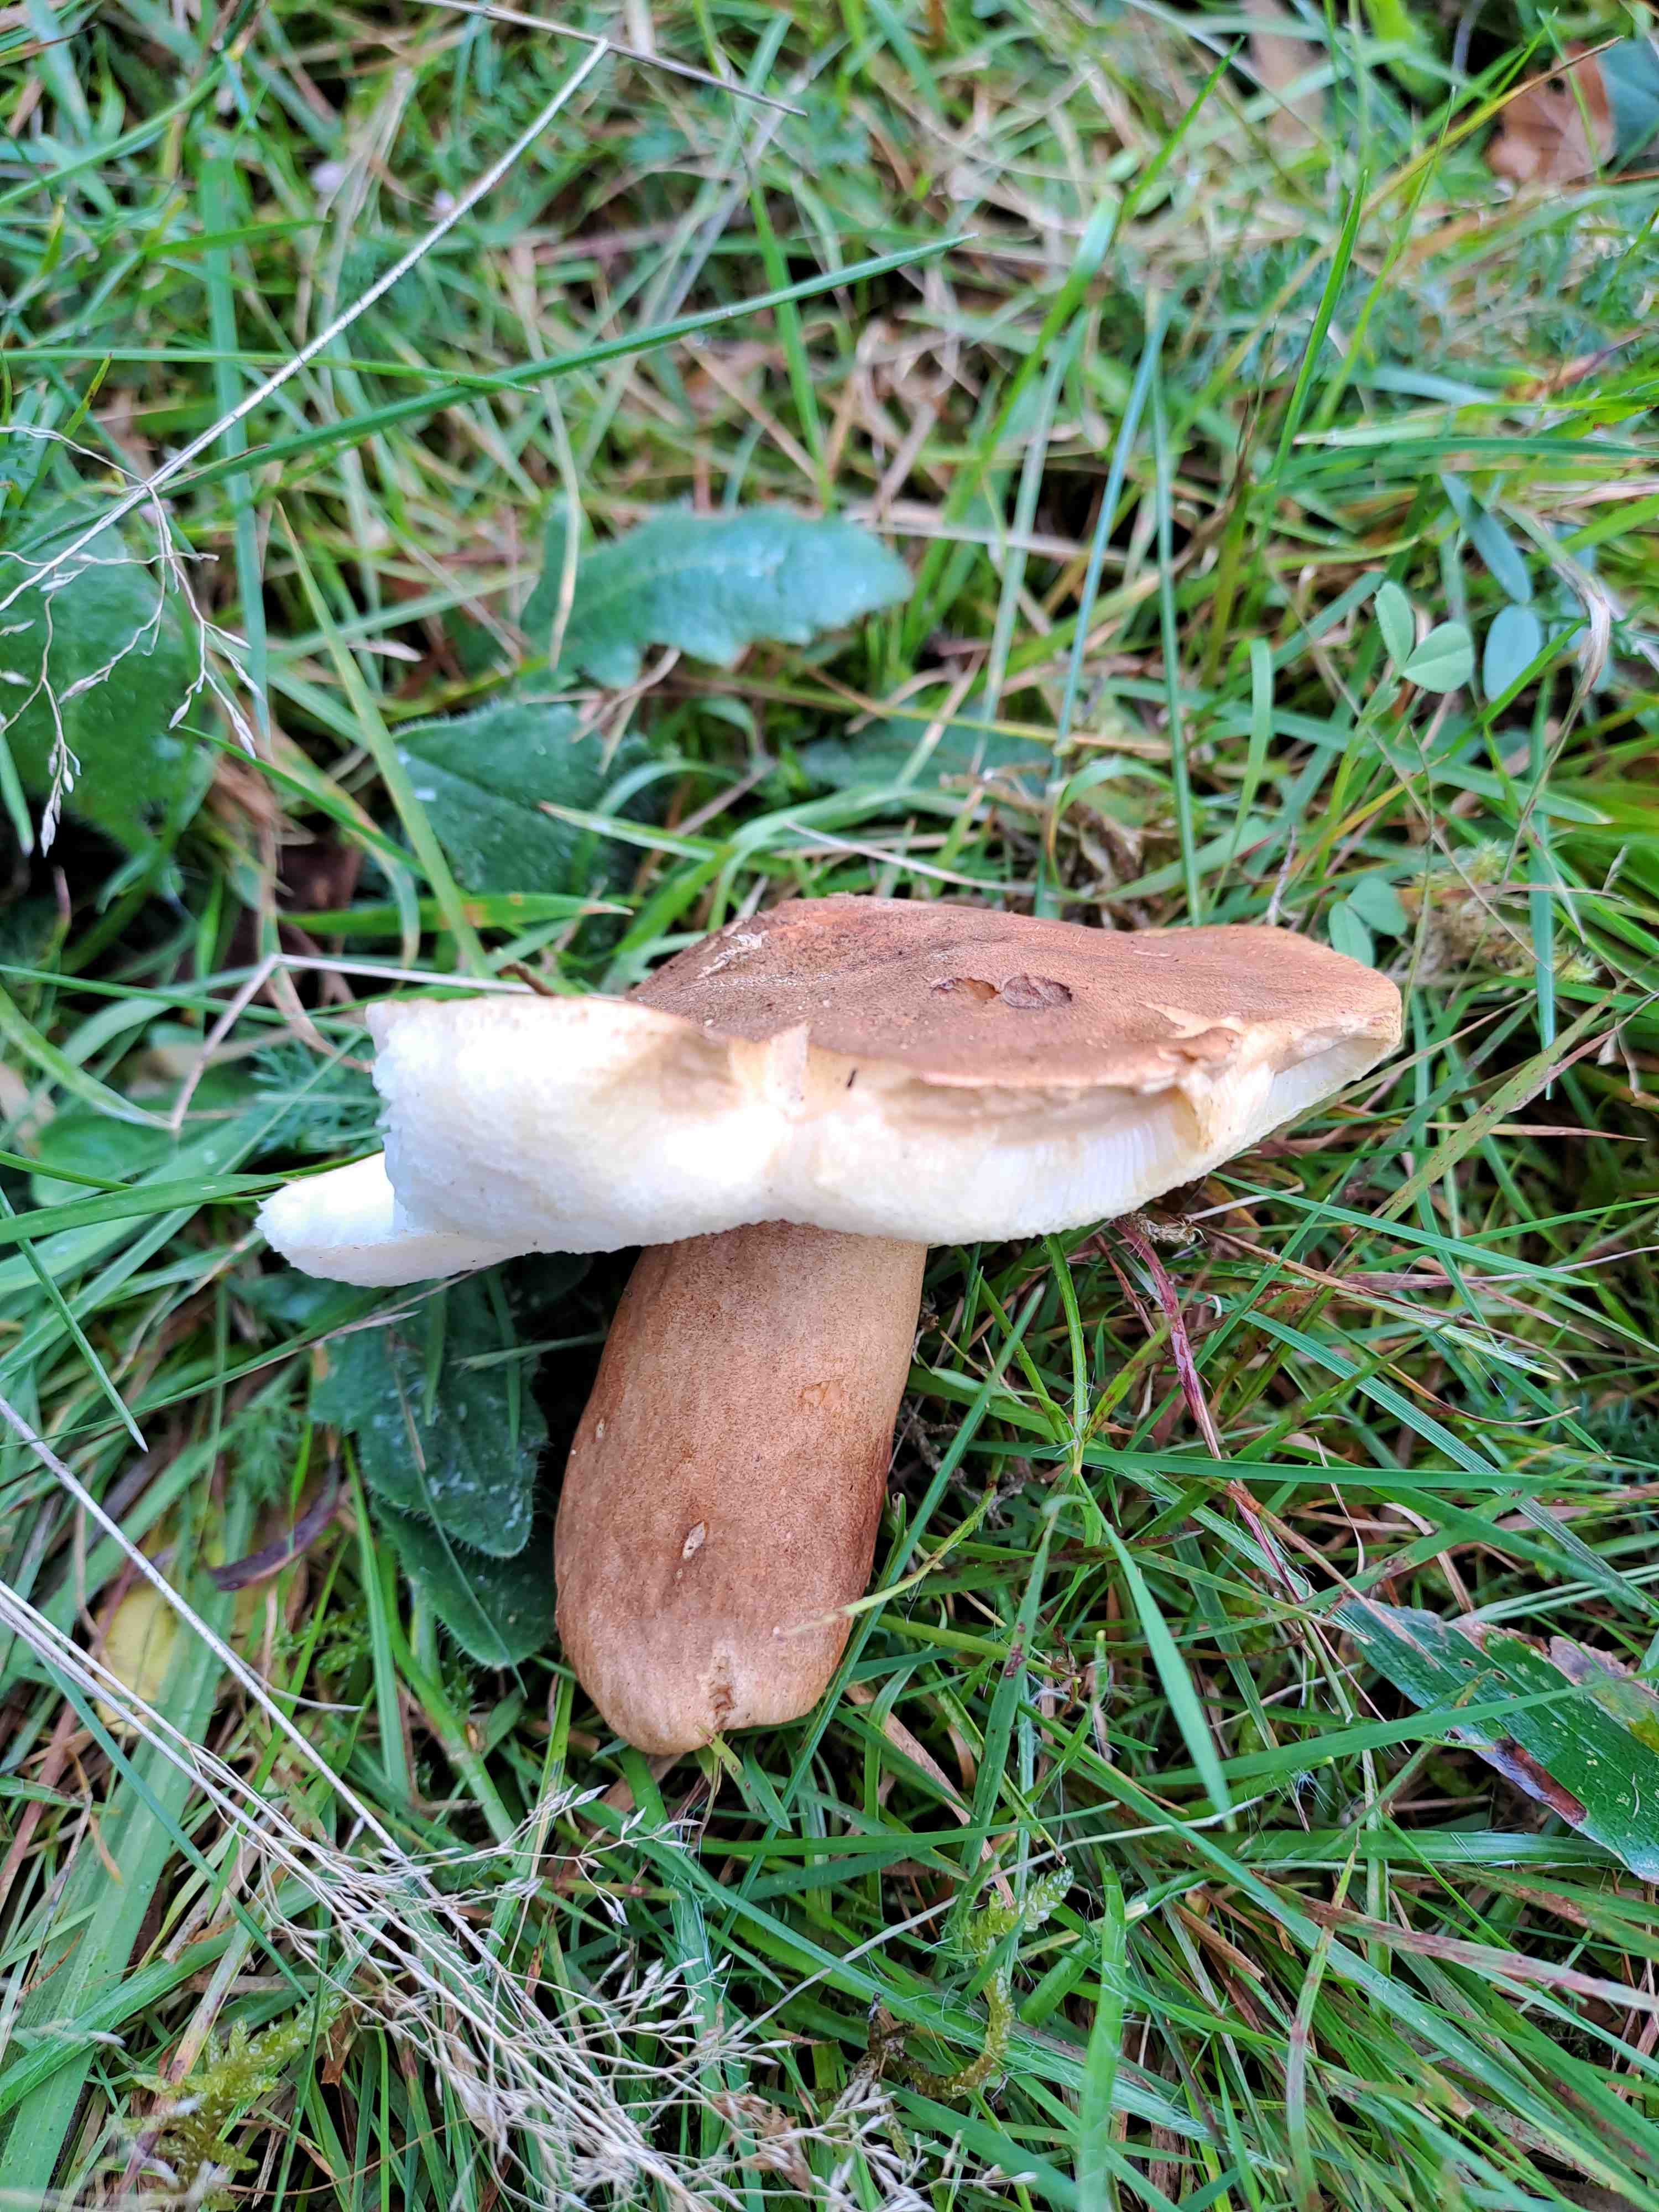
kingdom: Fungi
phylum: Basidiomycota
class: Agaricomycetes
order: Boletales
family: Gyroporaceae
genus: Gyroporus
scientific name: Gyroporus castaneus
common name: kastanie-kammerrørhat
